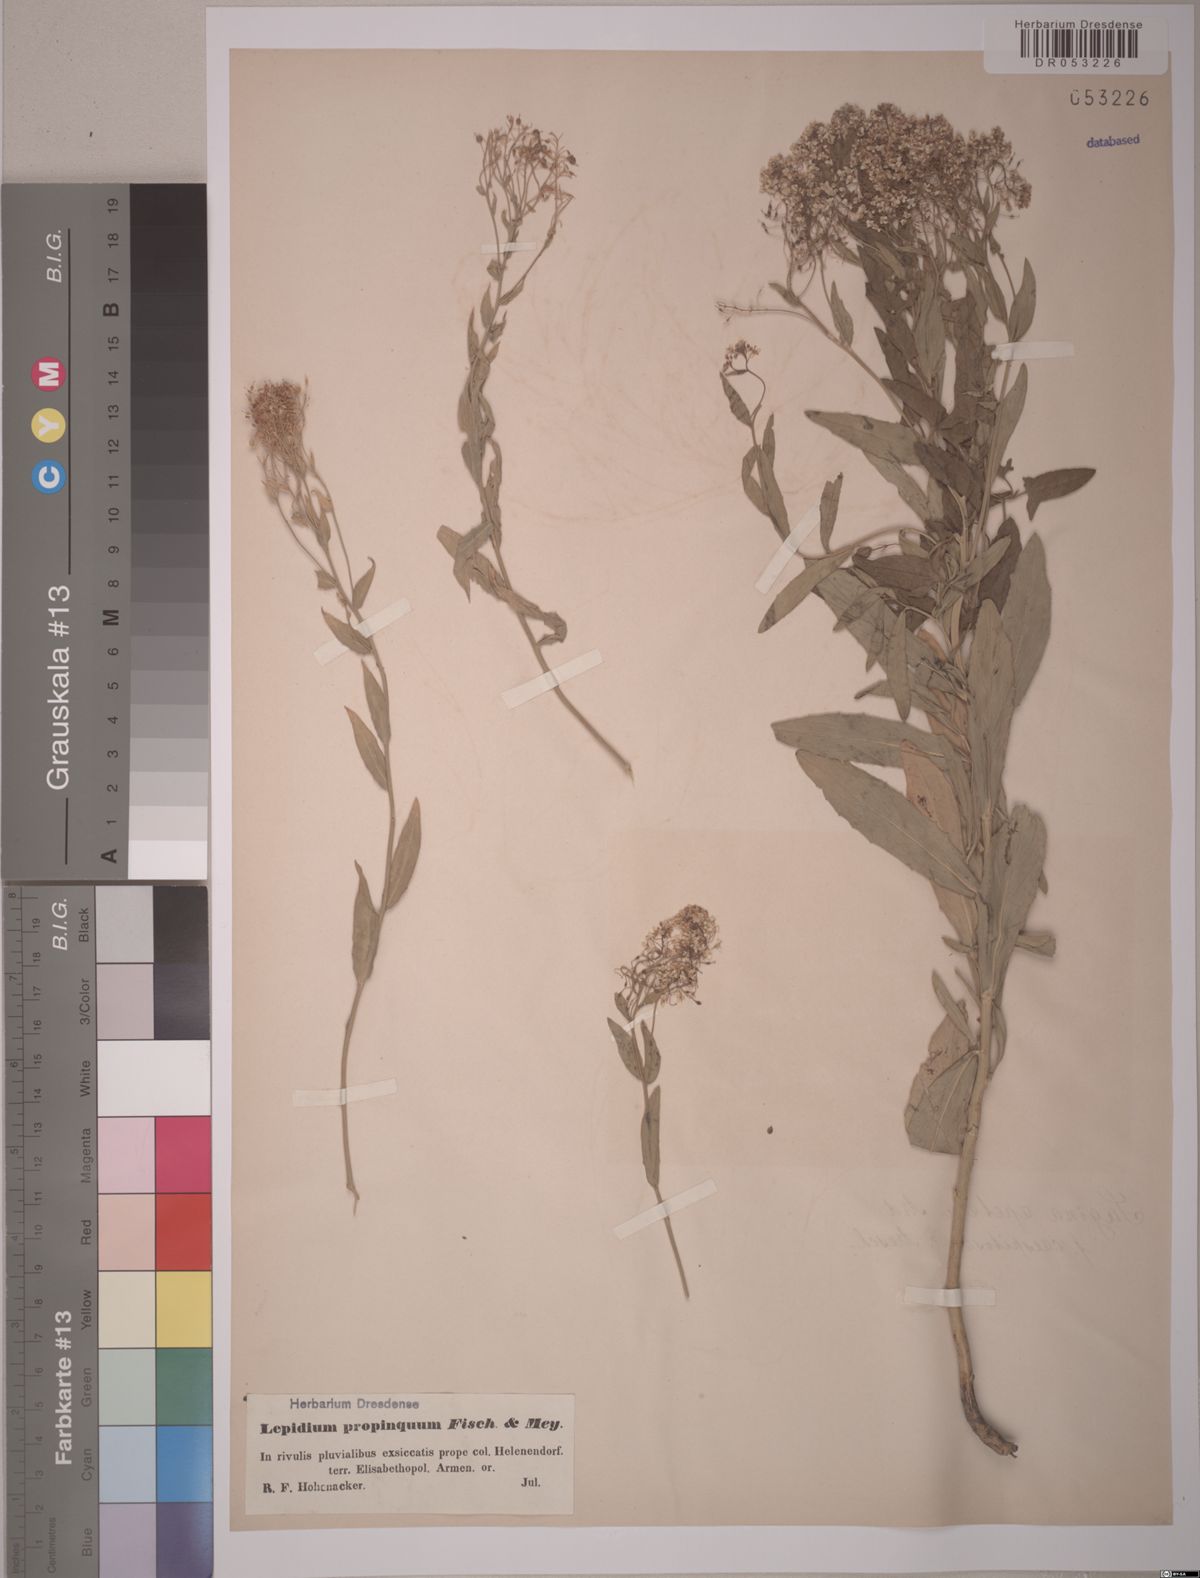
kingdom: Plantae
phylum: Tracheophyta
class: Magnoliopsida
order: Brassicales
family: Brassicaceae
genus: Lepidium
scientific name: Lepidium chalepense
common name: Orbicular whitetop
